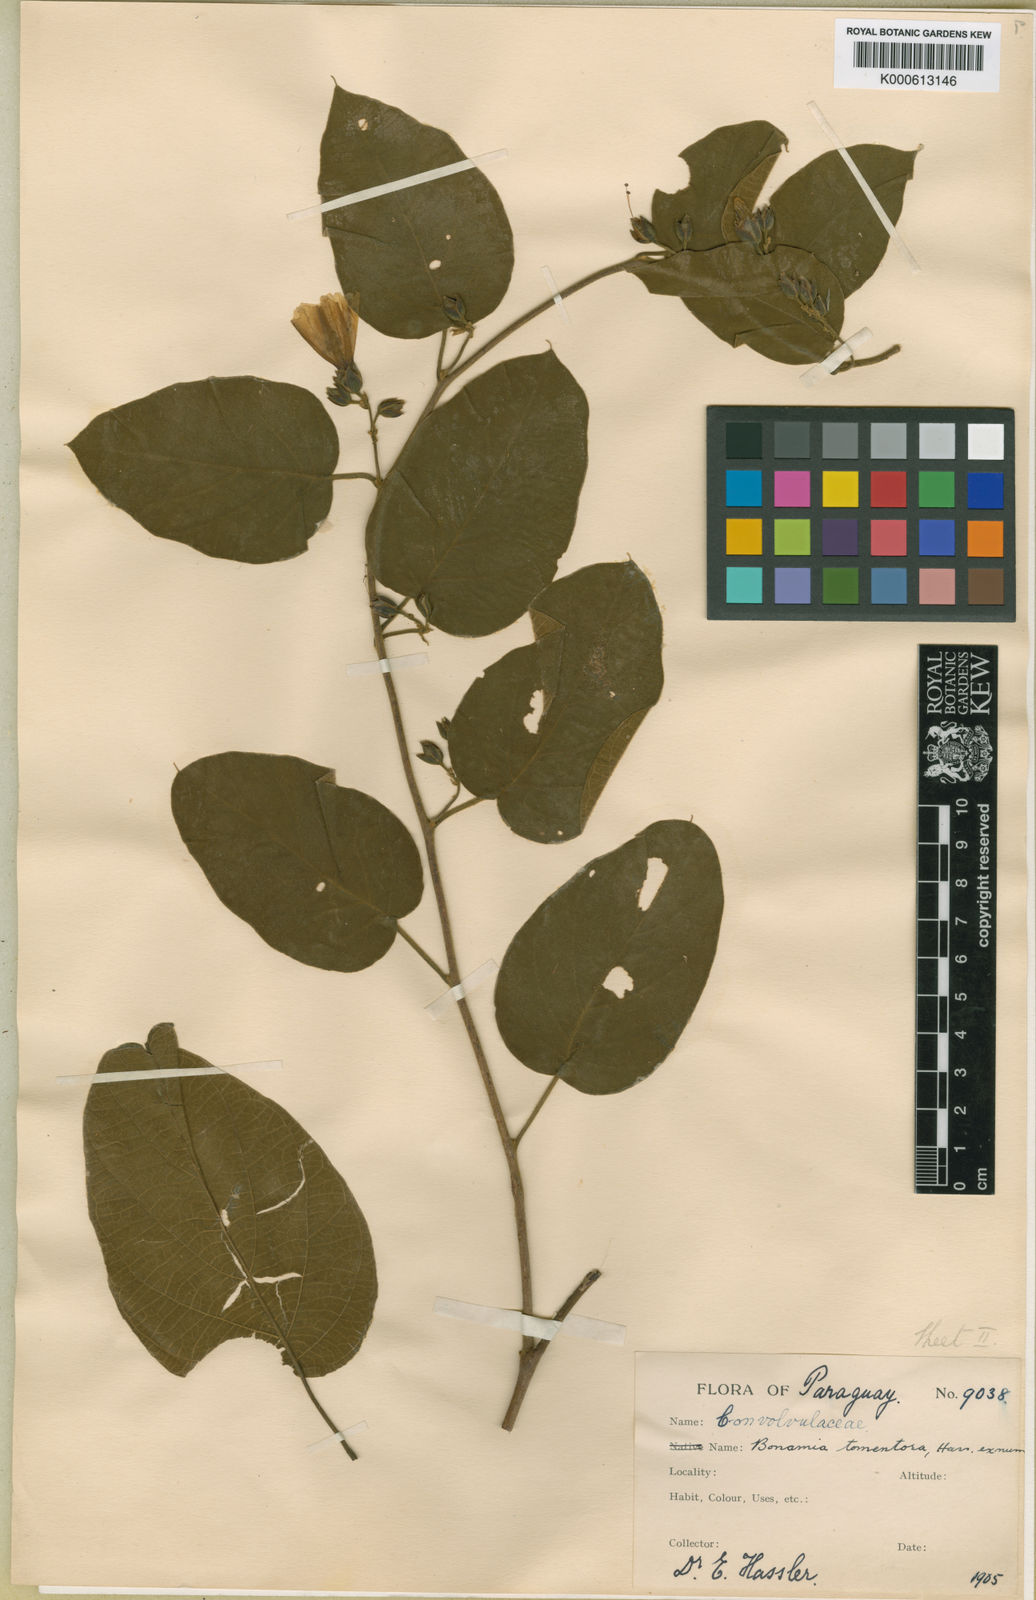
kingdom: Plantae
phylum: Tracheophyta
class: Magnoliopsida
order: Solanales
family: Convolvulaceae
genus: Bonamia
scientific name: Bonamia agrostopolis
